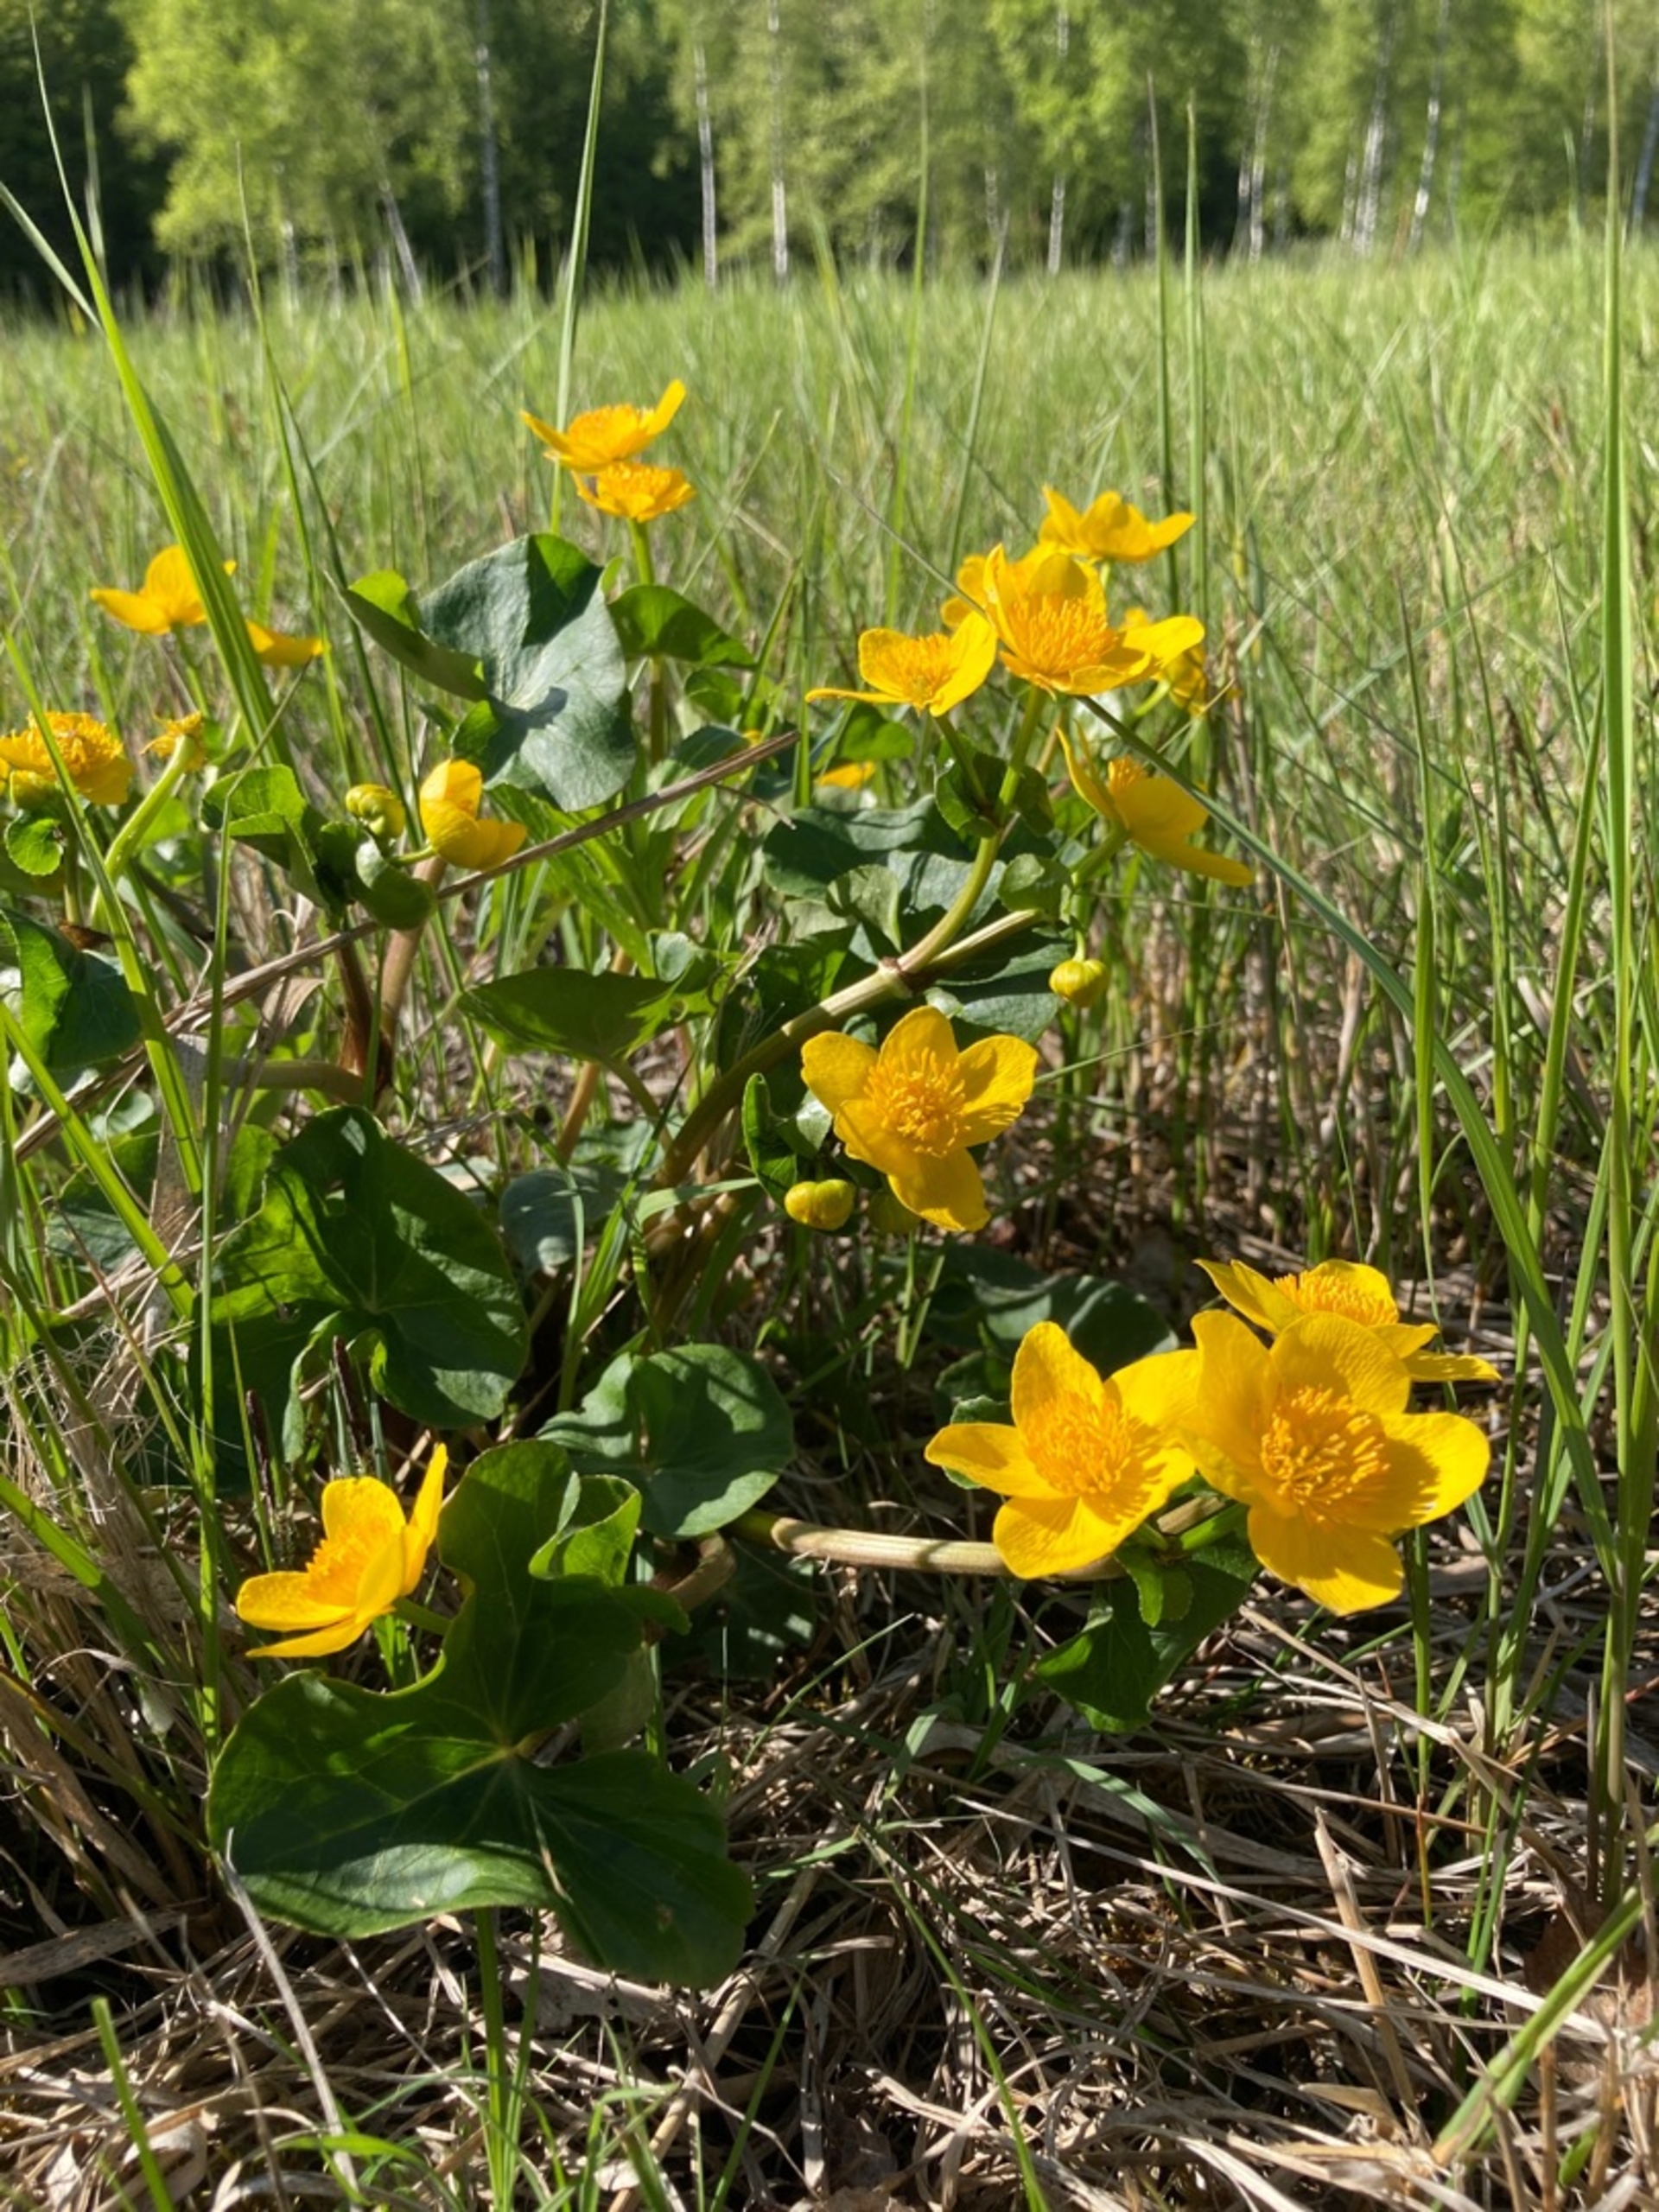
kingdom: Plantae
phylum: Tracheophyta
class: Magnoliopsida
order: Ranunculales
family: Ranunculaceae
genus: Caltha
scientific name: Caltha palustris
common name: Eng-kabbeleje
